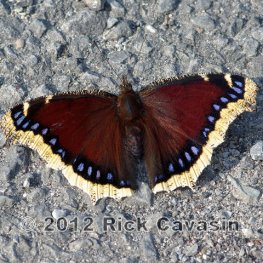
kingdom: Animalia
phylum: Arthropoda
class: Insecta
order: Lepidoptera
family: Nymphalidae
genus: Nymphalis
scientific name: Nymphalis antiopa
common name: Mourning Cloak
